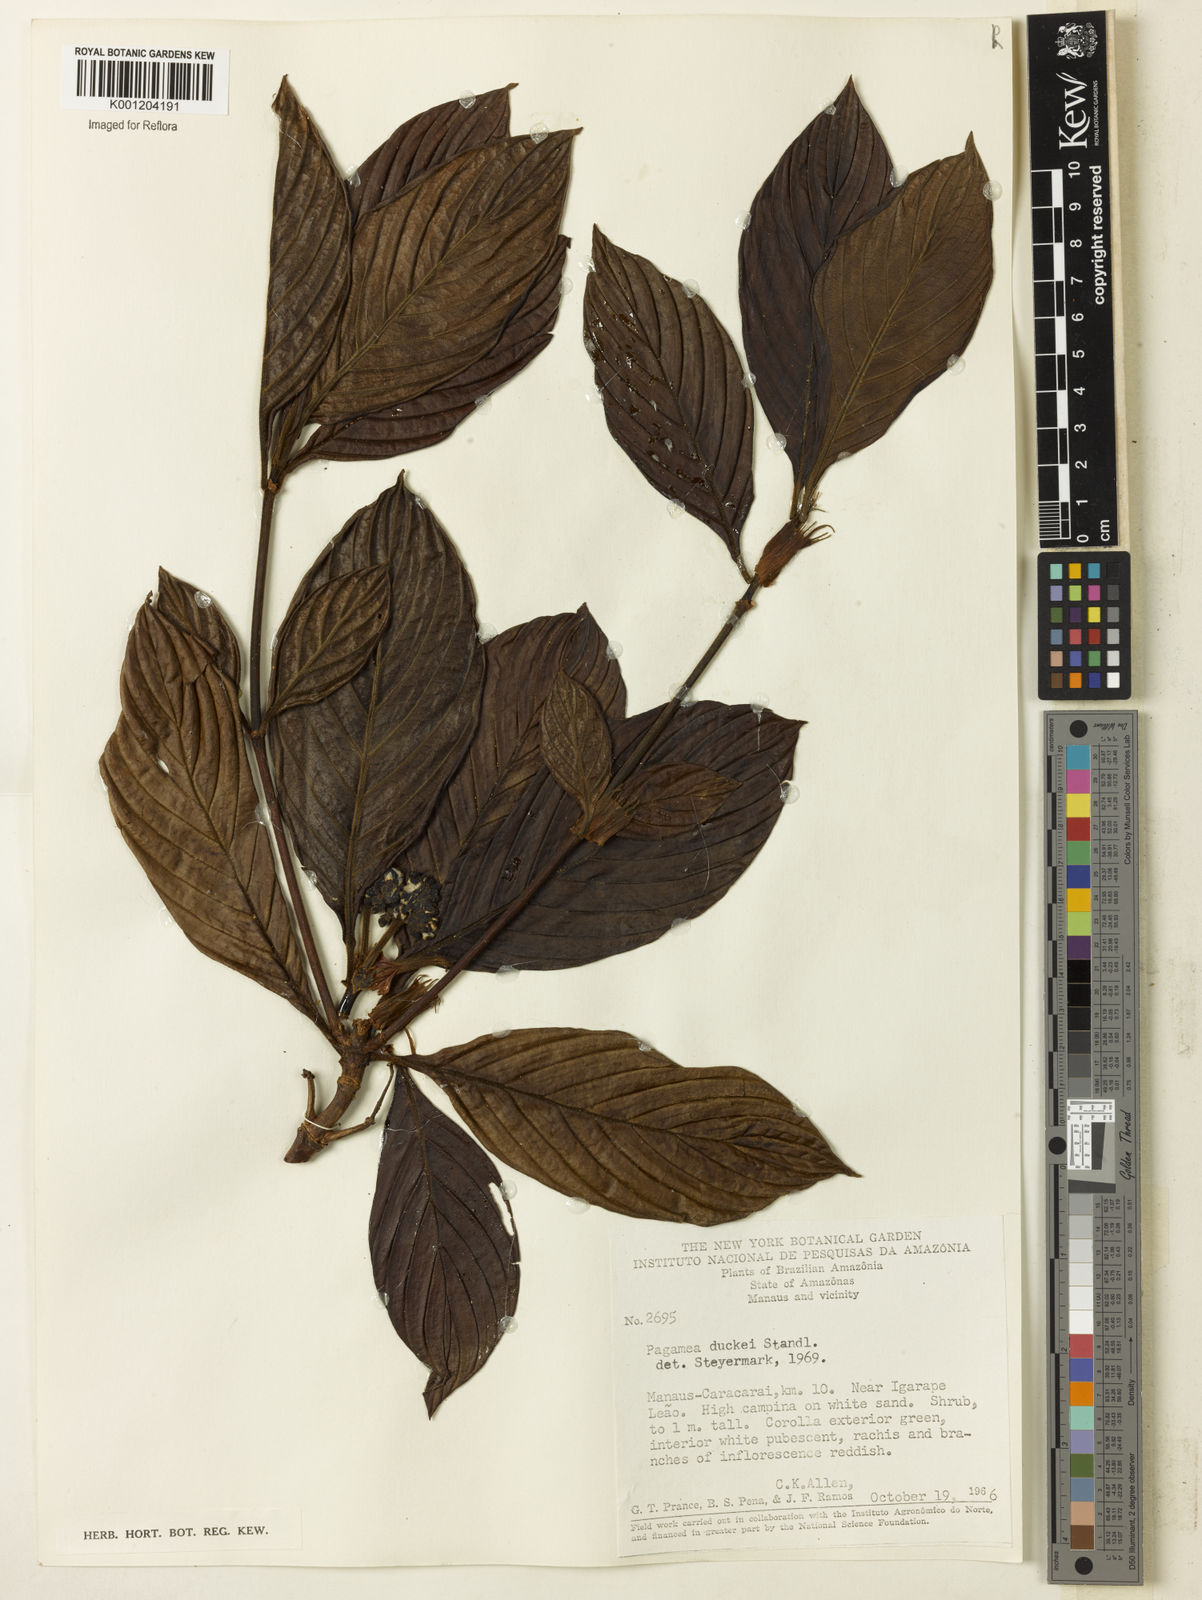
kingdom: Plantae
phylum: Tracheophyta
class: Magnoliopsida
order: Gentianales
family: Rubiaceae
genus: Pagamea
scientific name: Pagamea duckei
